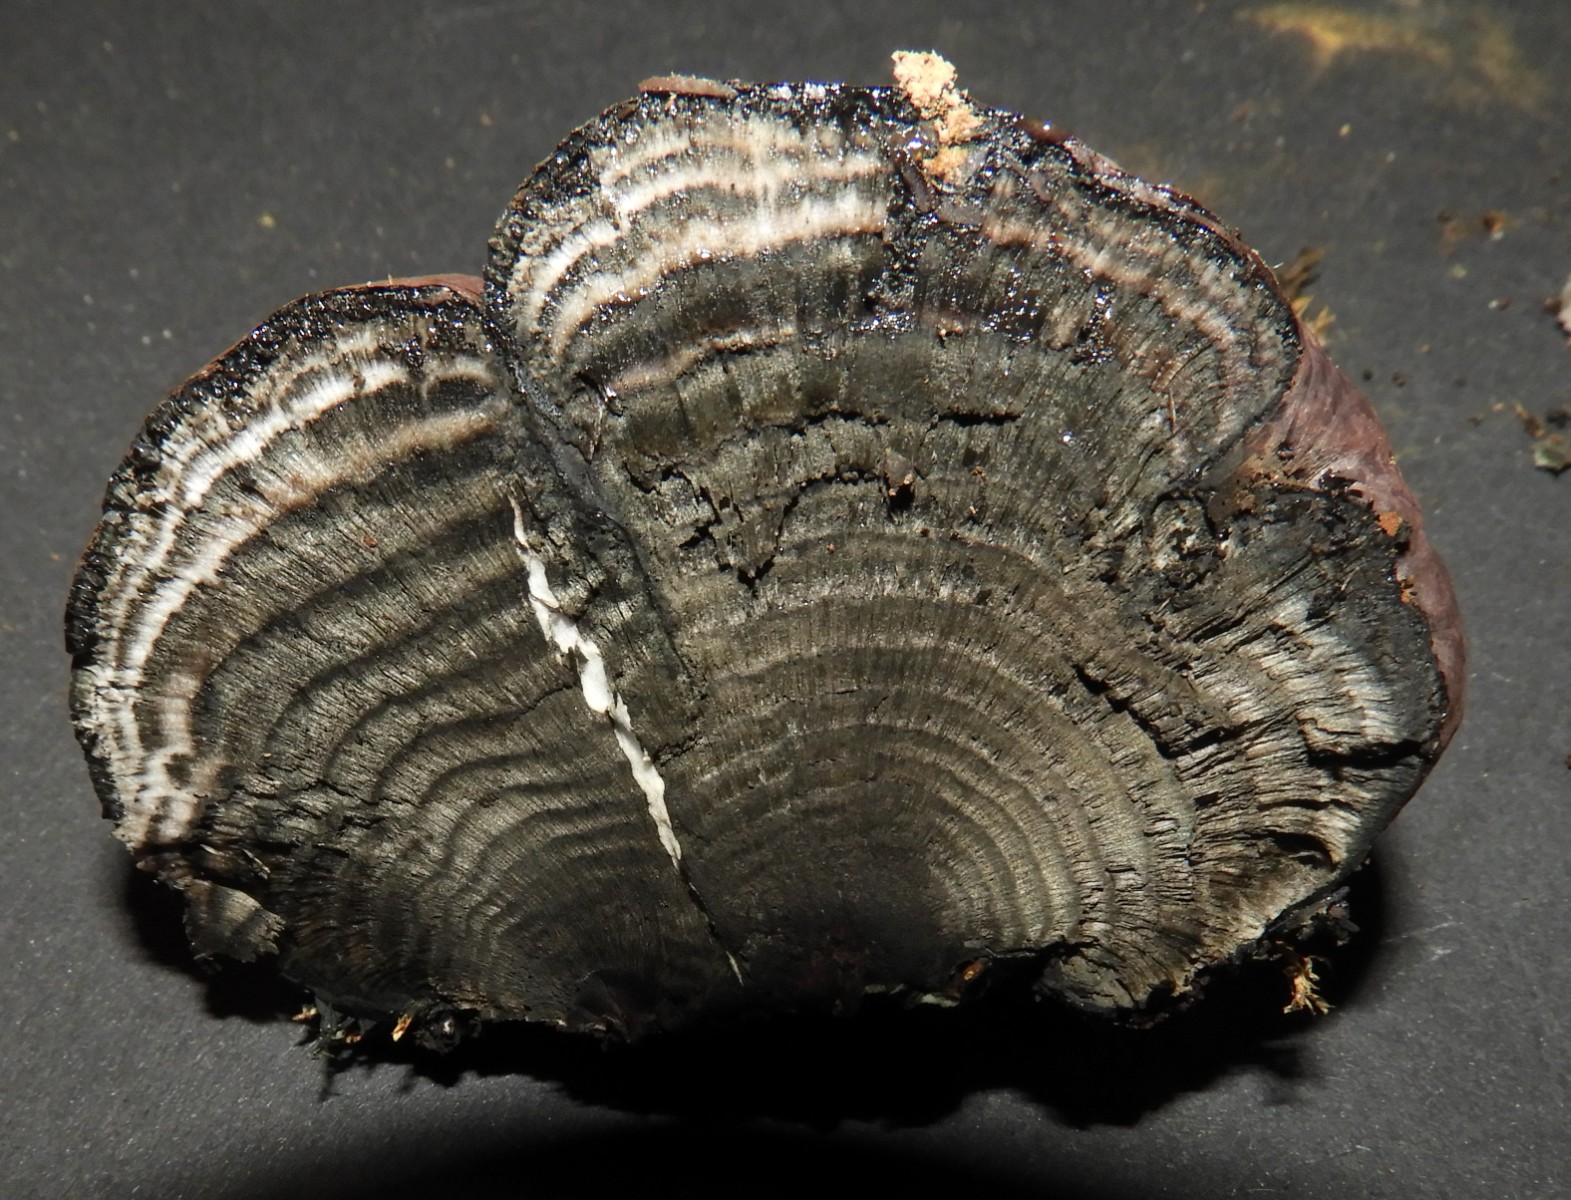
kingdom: Fungi
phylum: Ascomycota
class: Sordariomycetes
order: Xylariales
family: Hypoxylaceae
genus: Daldinia
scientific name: Daldinia concentrica
